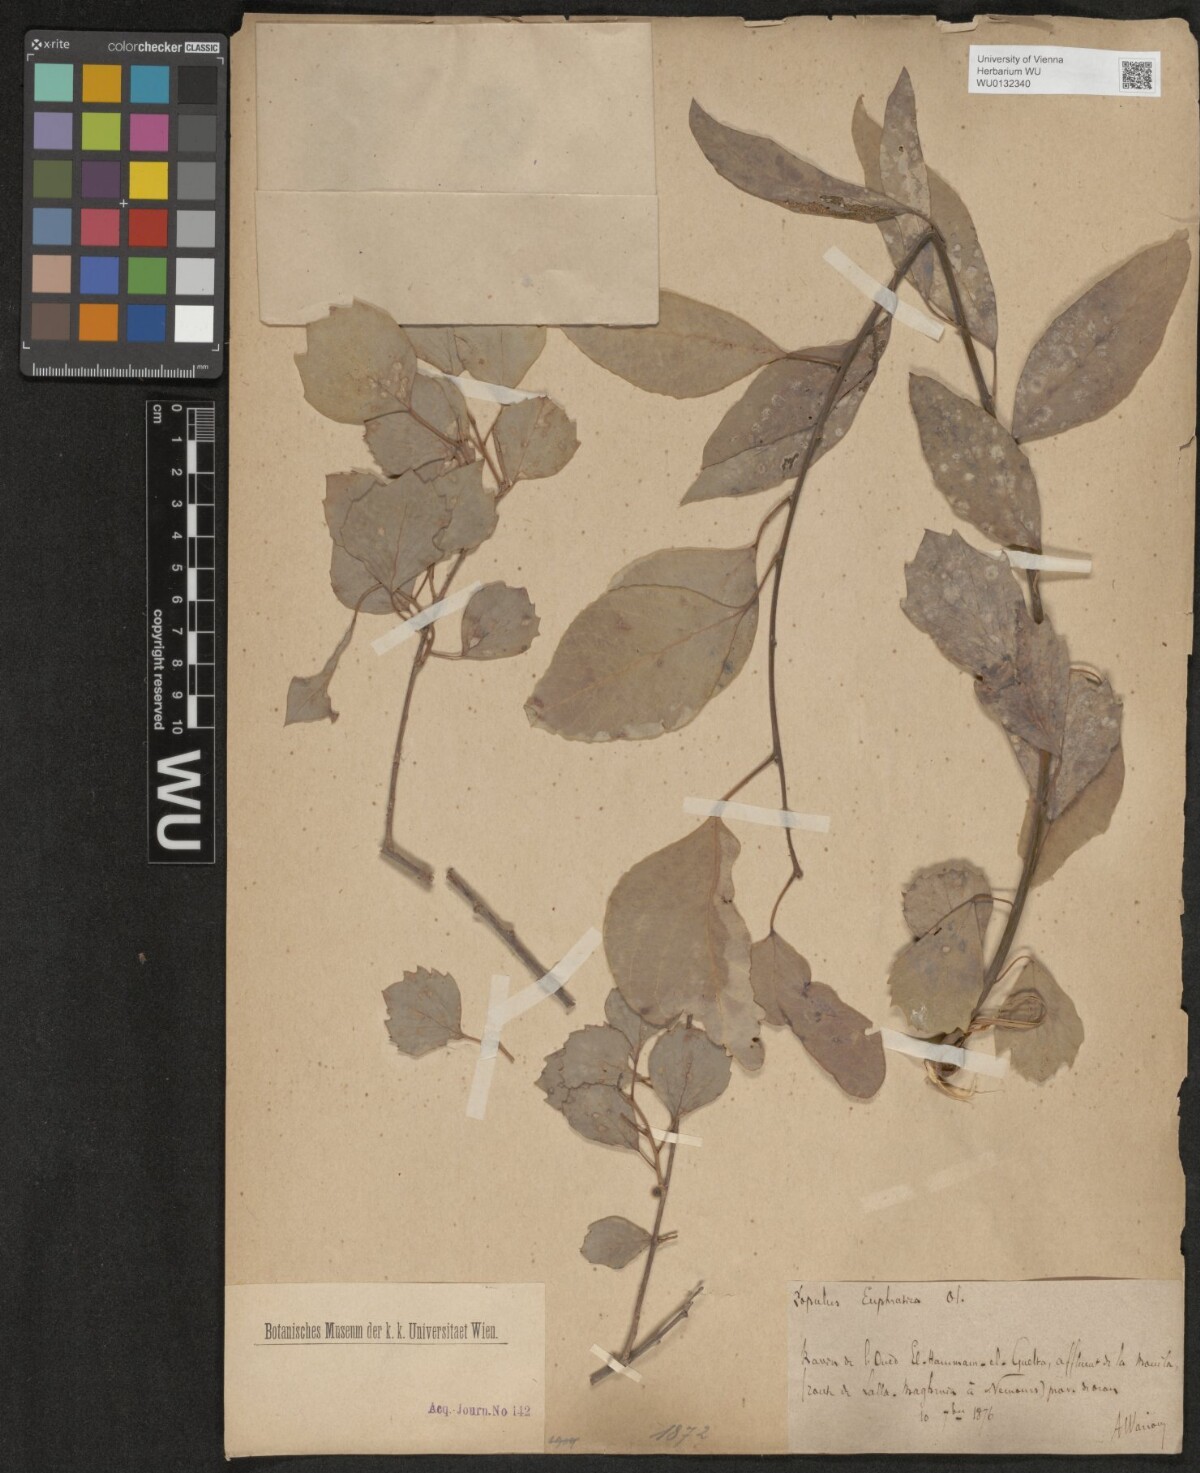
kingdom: Plantae
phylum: Tracheophyta
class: Magnoliopsida
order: Malpighiales
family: Salicaceae
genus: Populus
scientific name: Populus euphratica
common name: Euphrates poplar
